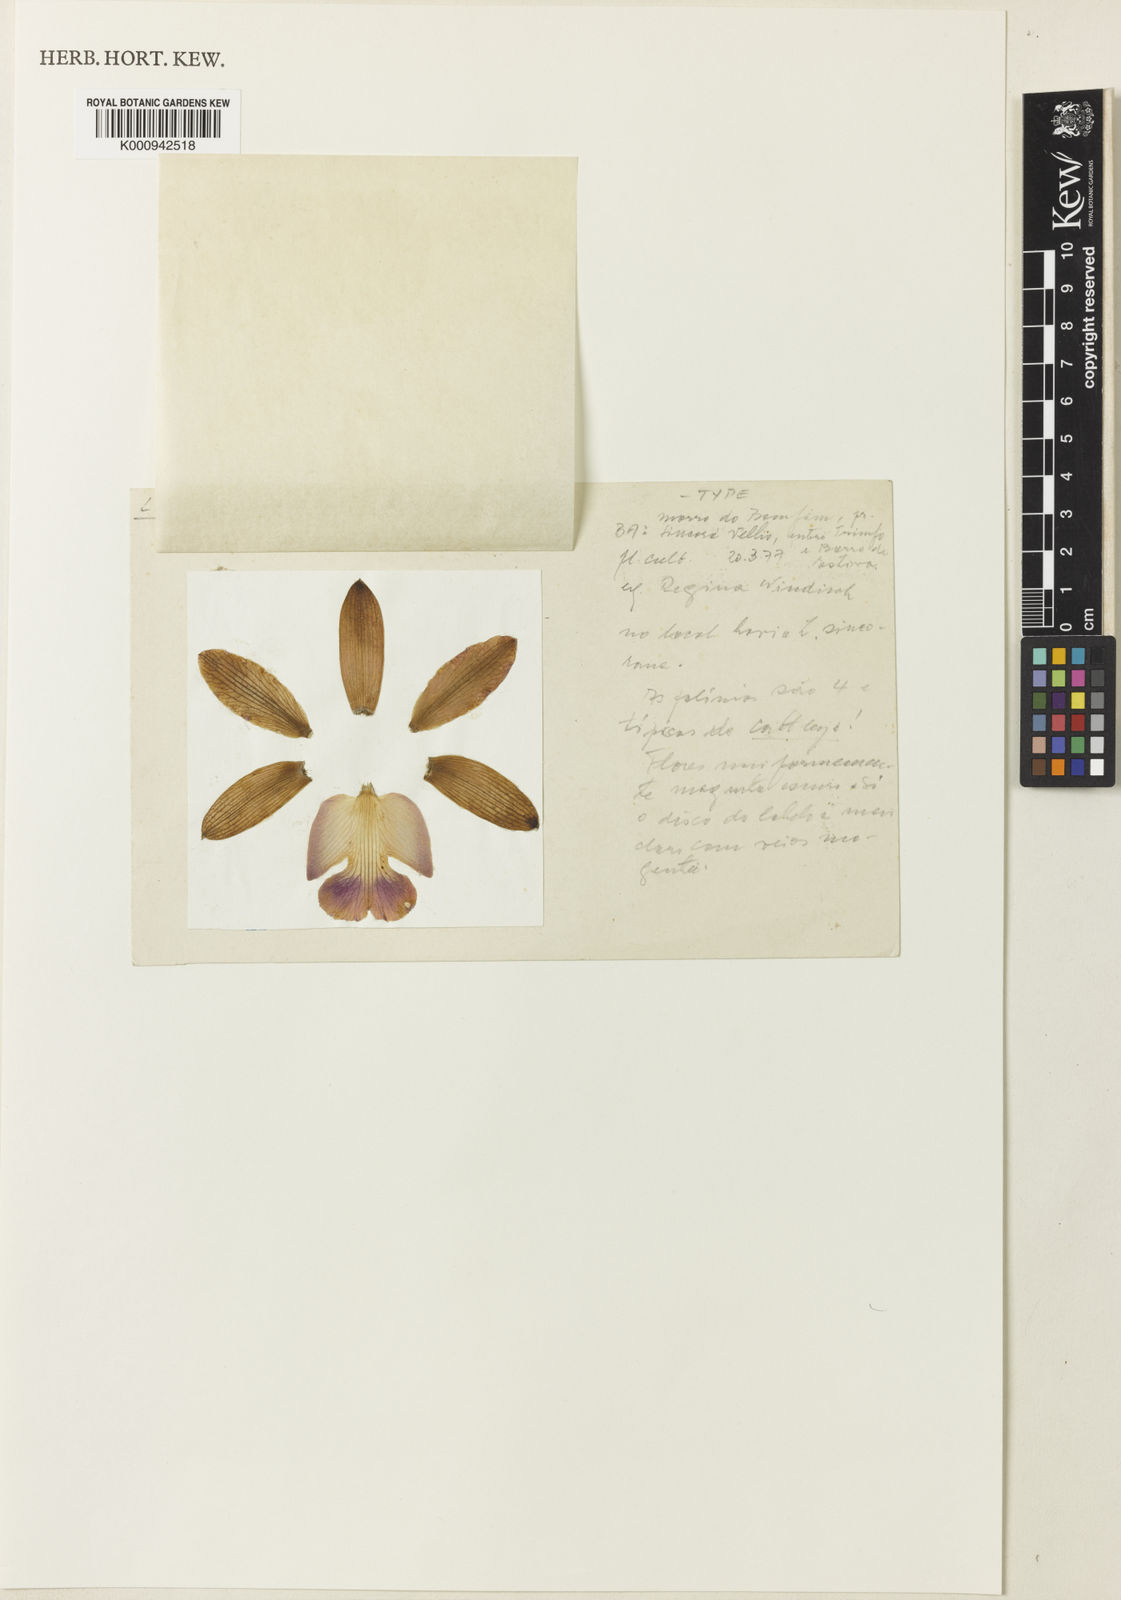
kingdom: Plantae
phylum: Tracheophyta
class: Liliopsida
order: Asparagales
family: Orchidaceae
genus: Cattleya
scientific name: Cattleya neoreginae
